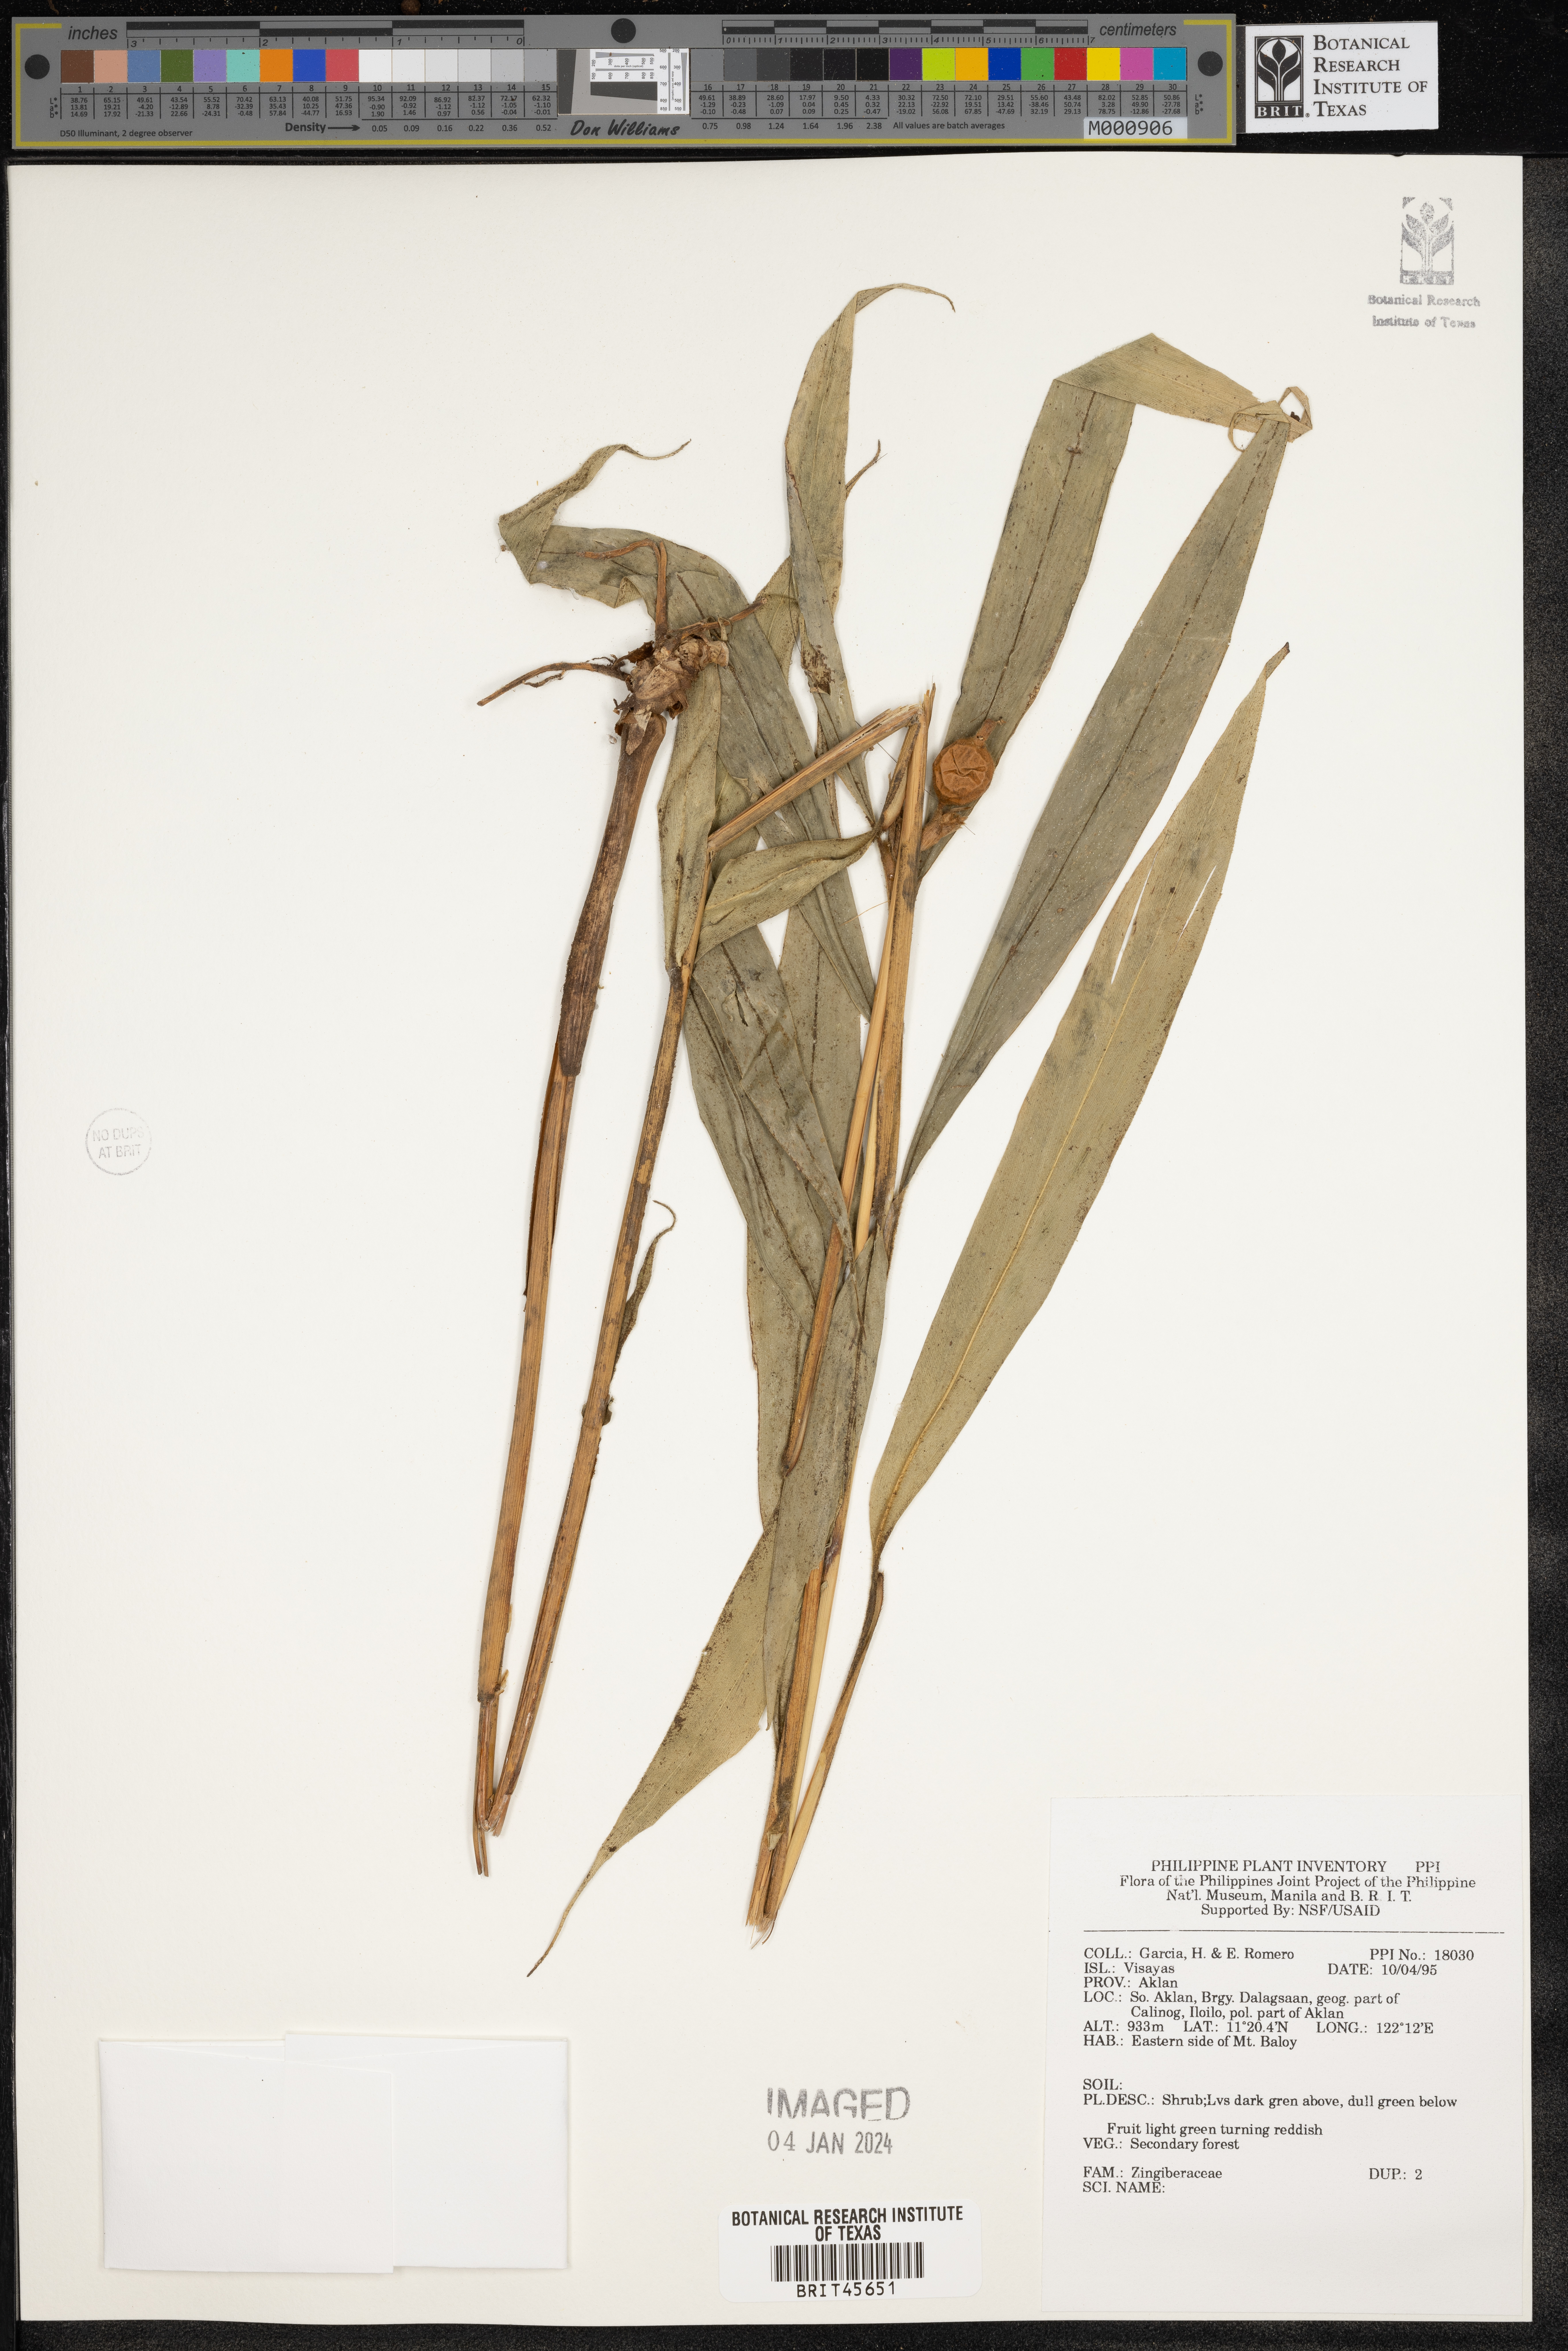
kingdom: Plantae
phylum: Tracheophyta
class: Liliopsida
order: Zingiberales
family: Zingiberaceae
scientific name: Zingiberaceae
